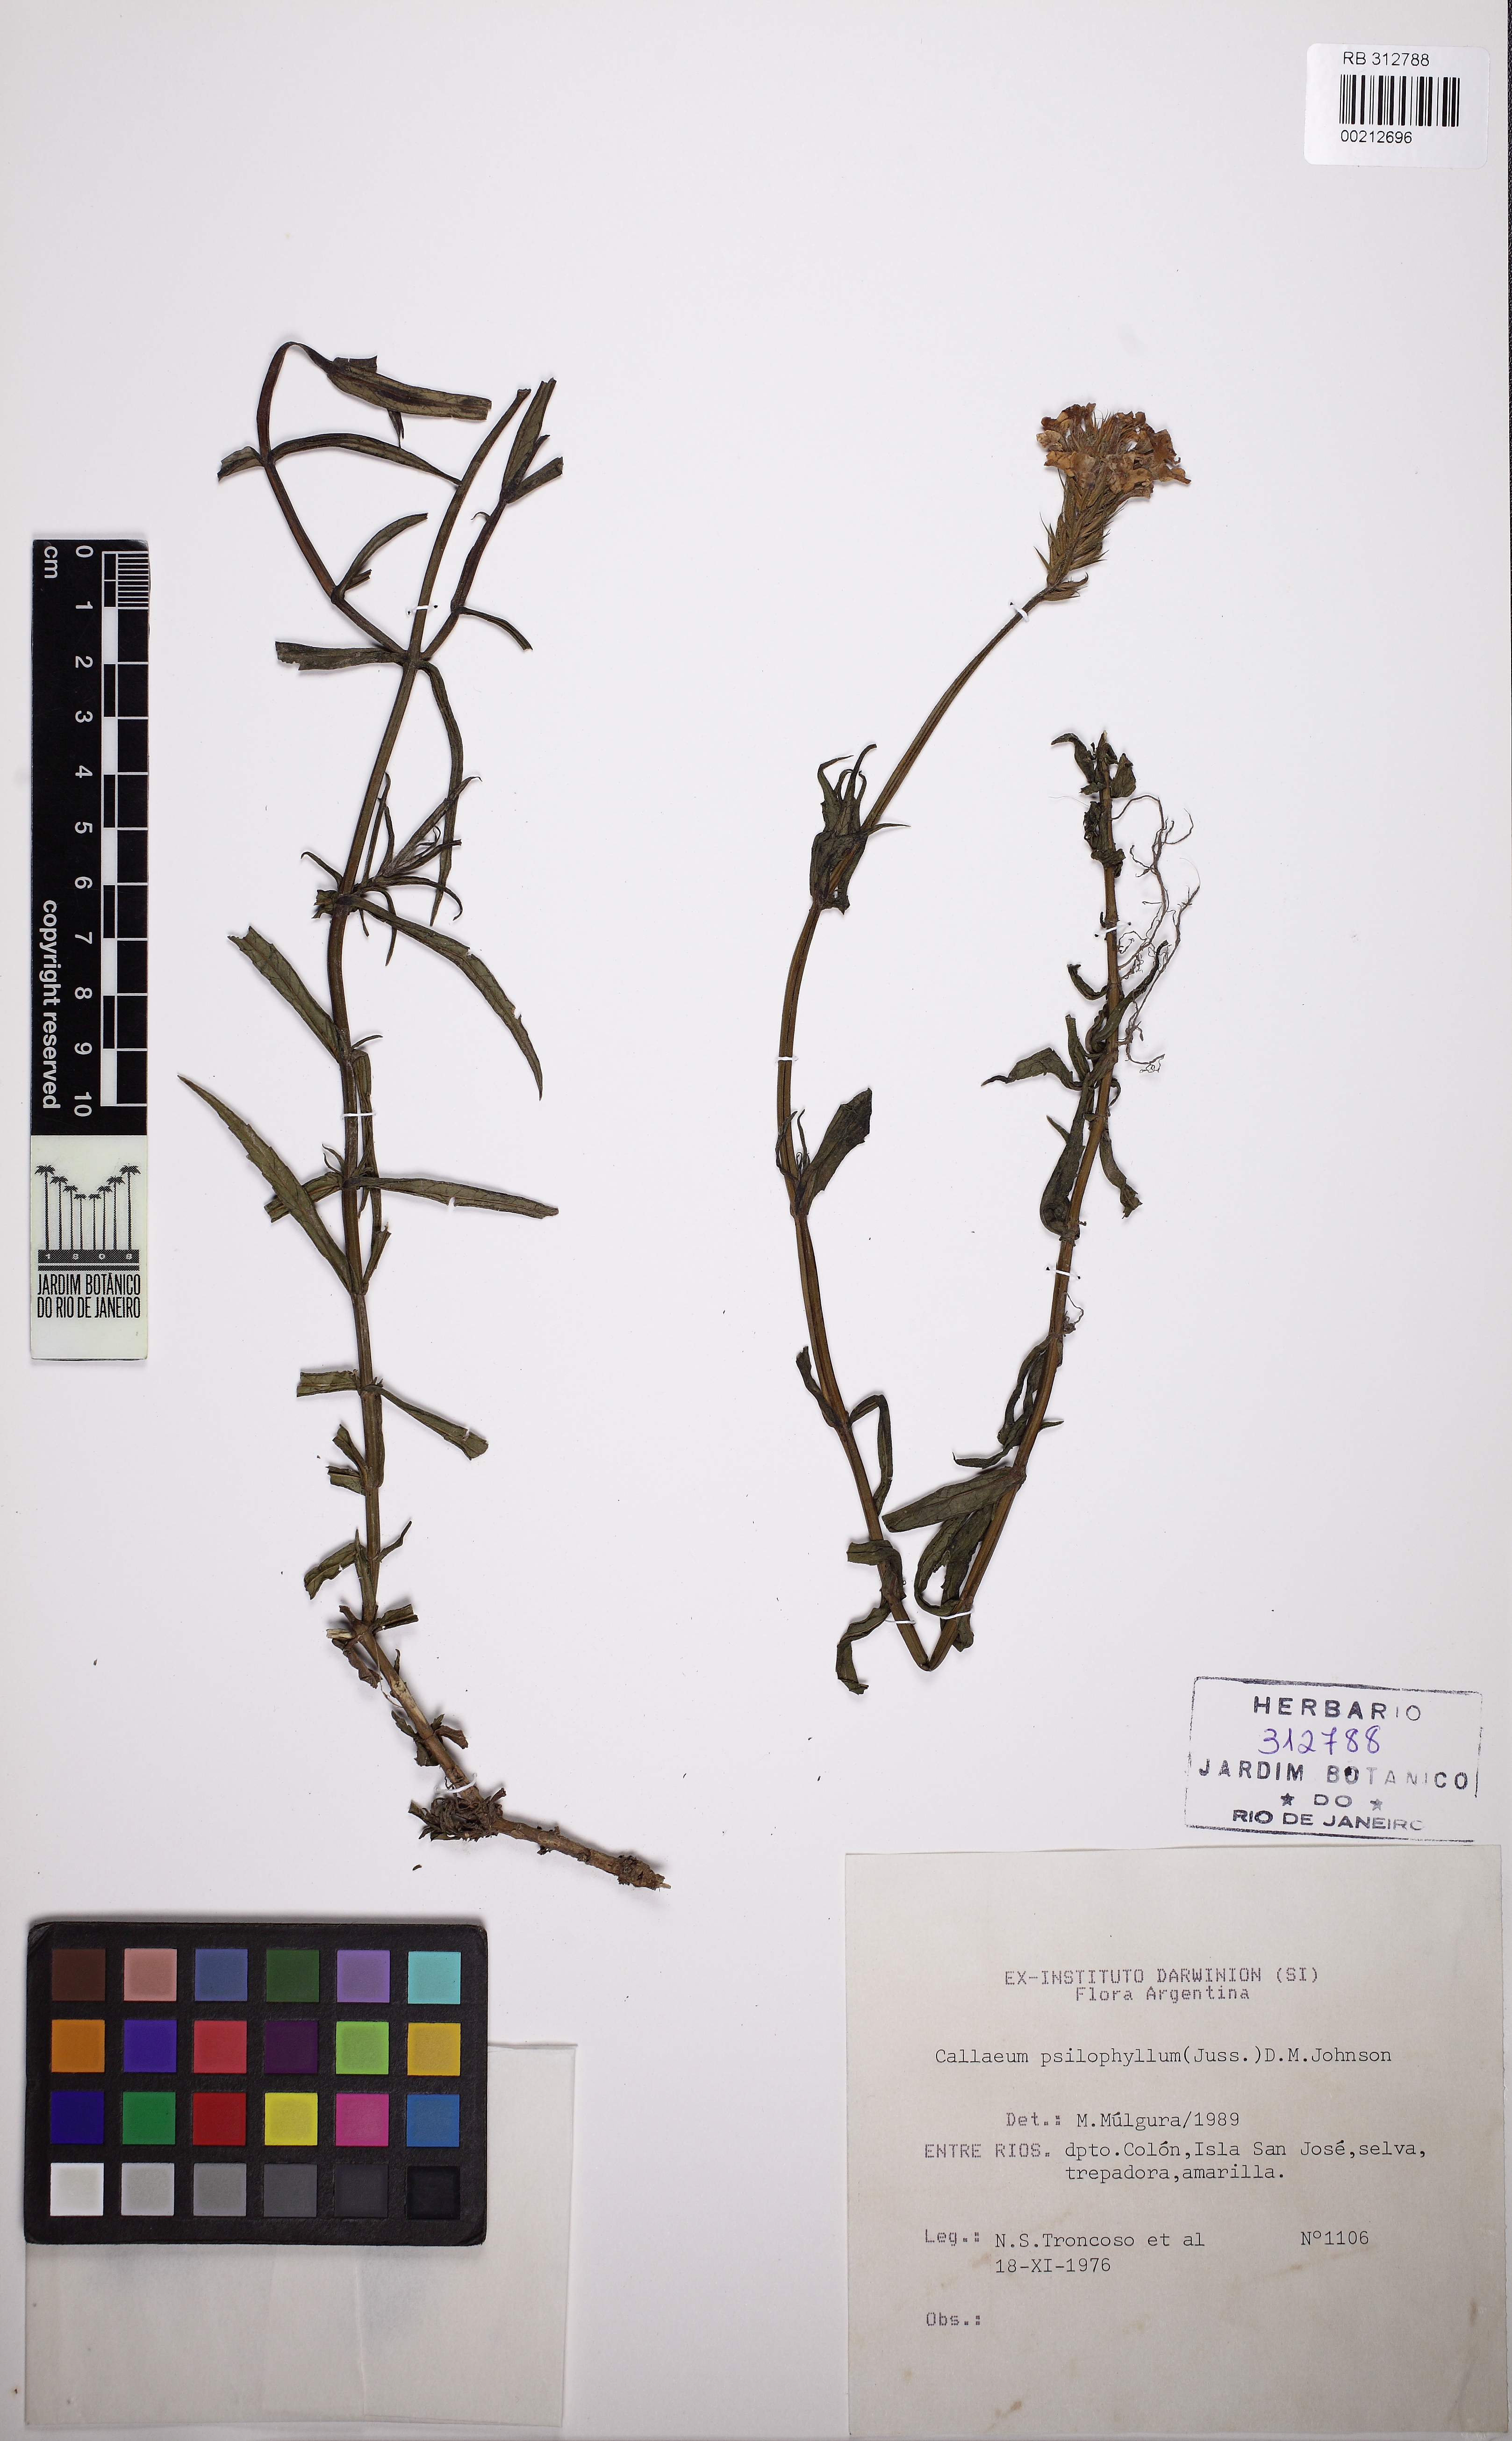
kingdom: Plantae
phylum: Tracheophyta
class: Magnoliopsida
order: Malpighiales
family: Malpighiaceae
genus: Callaeum
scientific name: Callaeum psilophyllum
